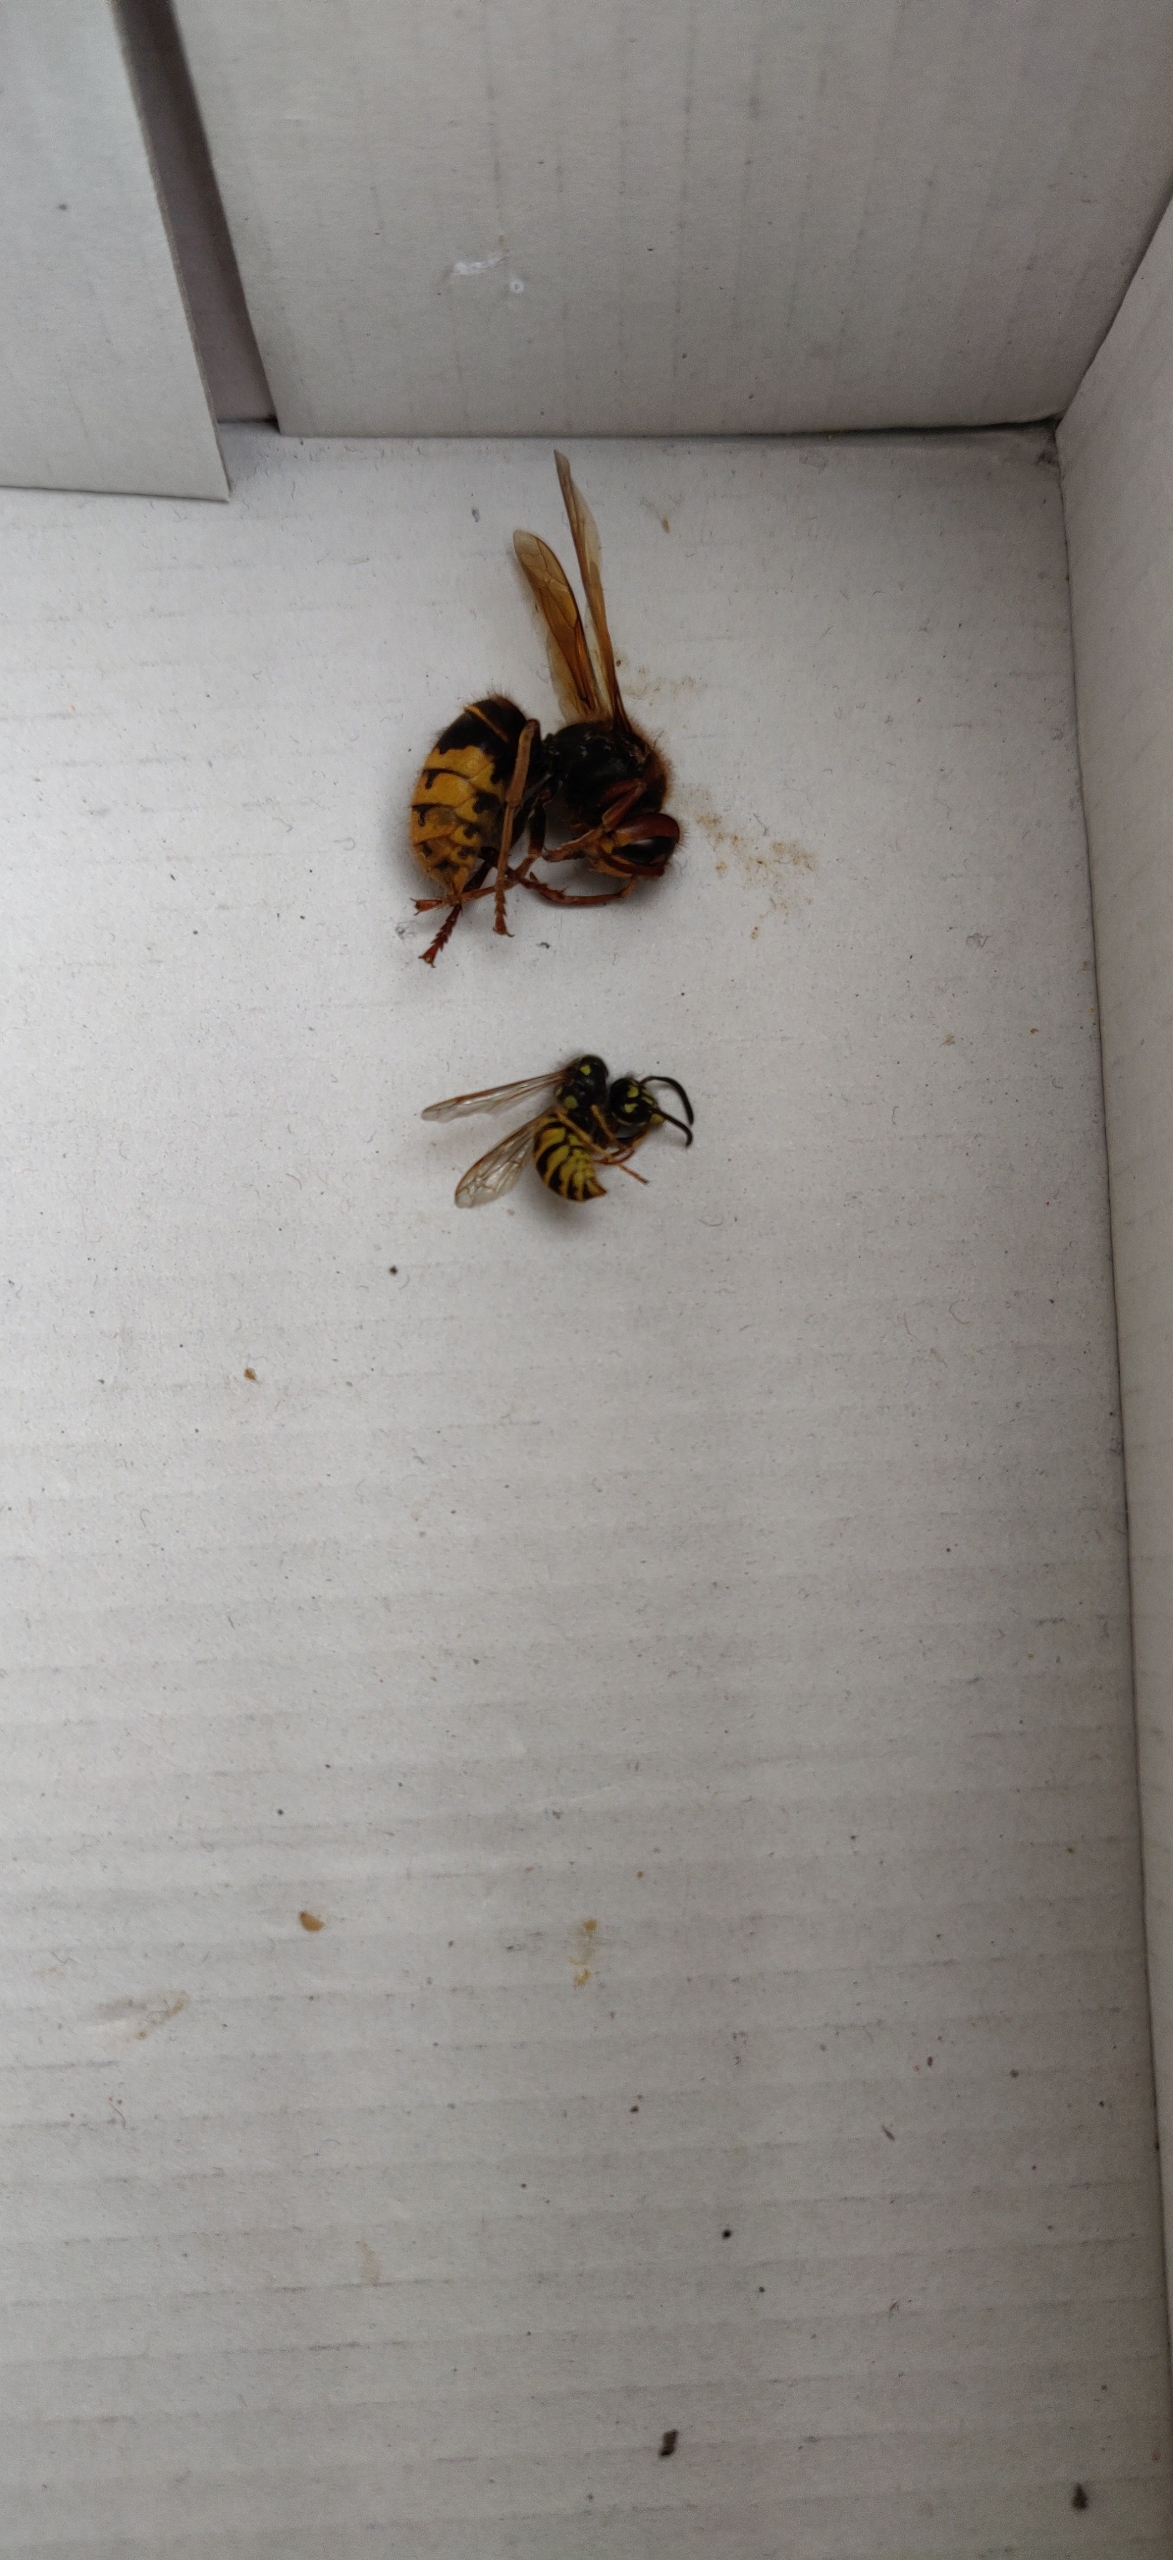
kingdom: Animalia
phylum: Arthropoda
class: Insecta
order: Hymenoptera
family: Vespidae
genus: Vespa
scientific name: Vespa crabro
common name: Stor gedehams
